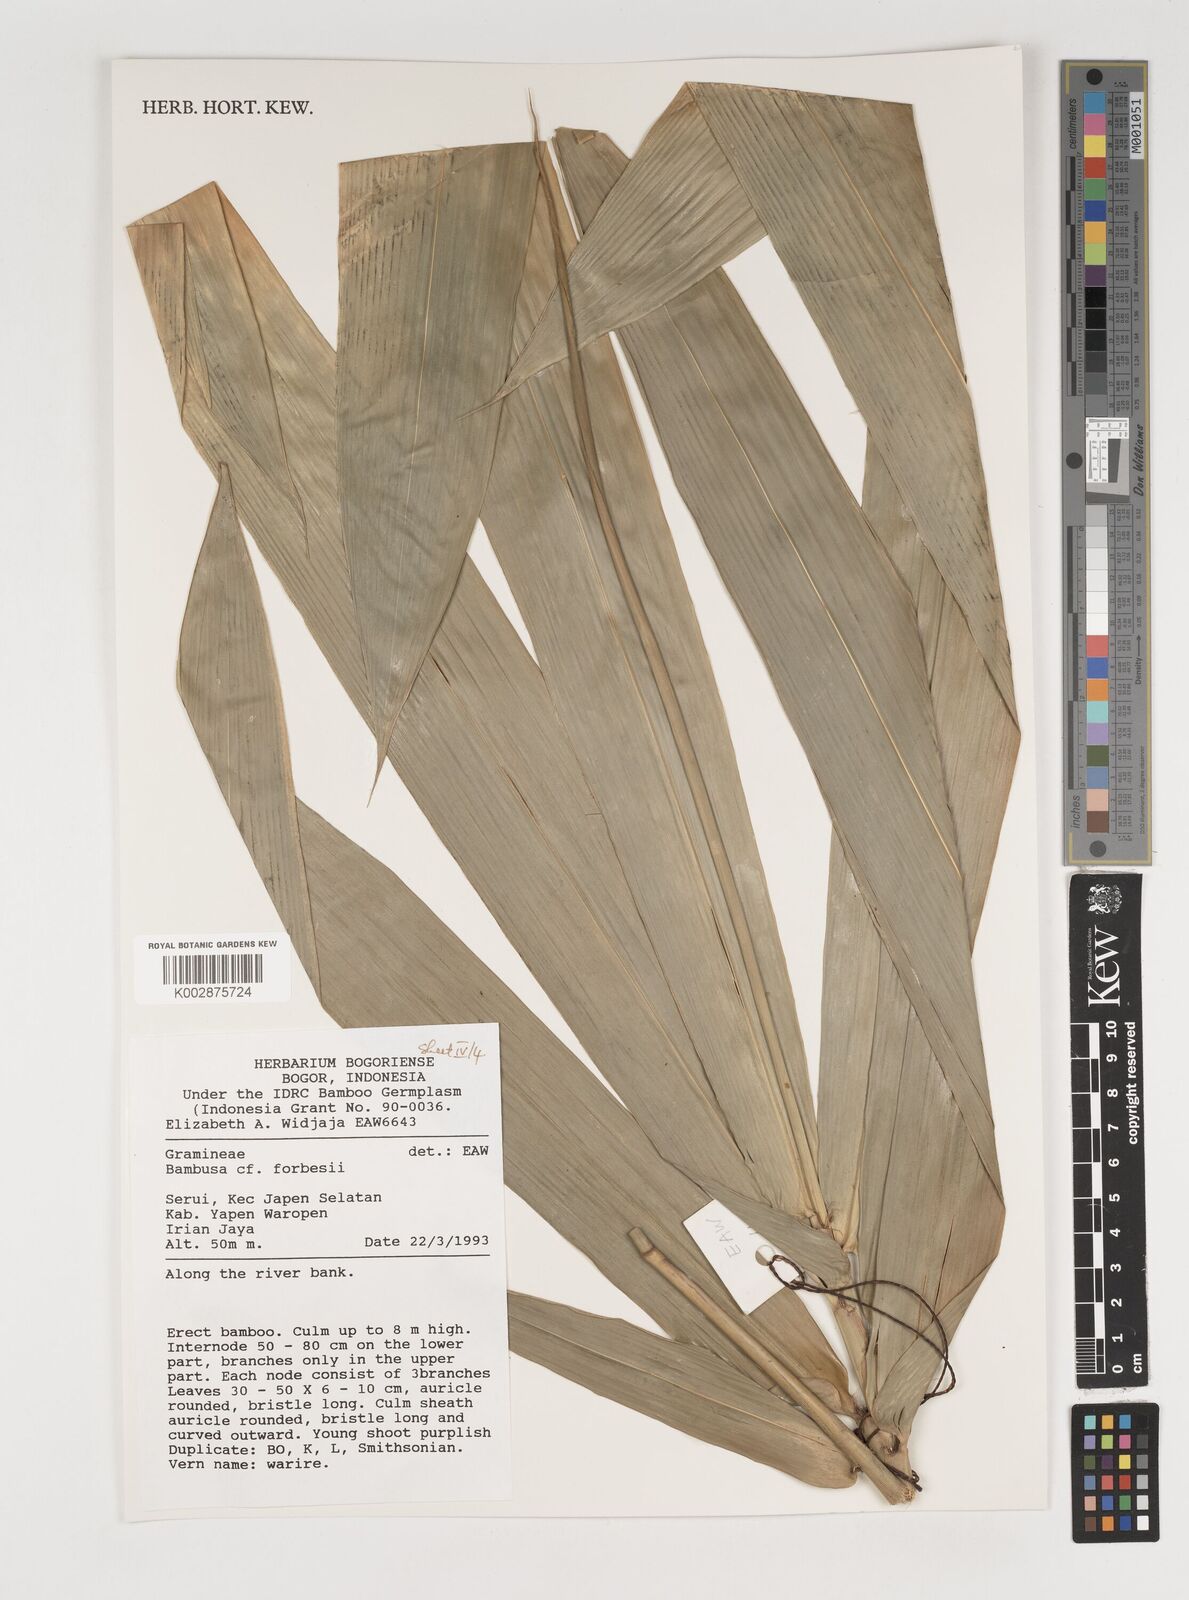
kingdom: Plantae
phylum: Tracheophyta
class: Liliopsida
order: Poales
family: Poaceae
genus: Neololeba
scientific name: Neololeba atra
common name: Cape bamboo
